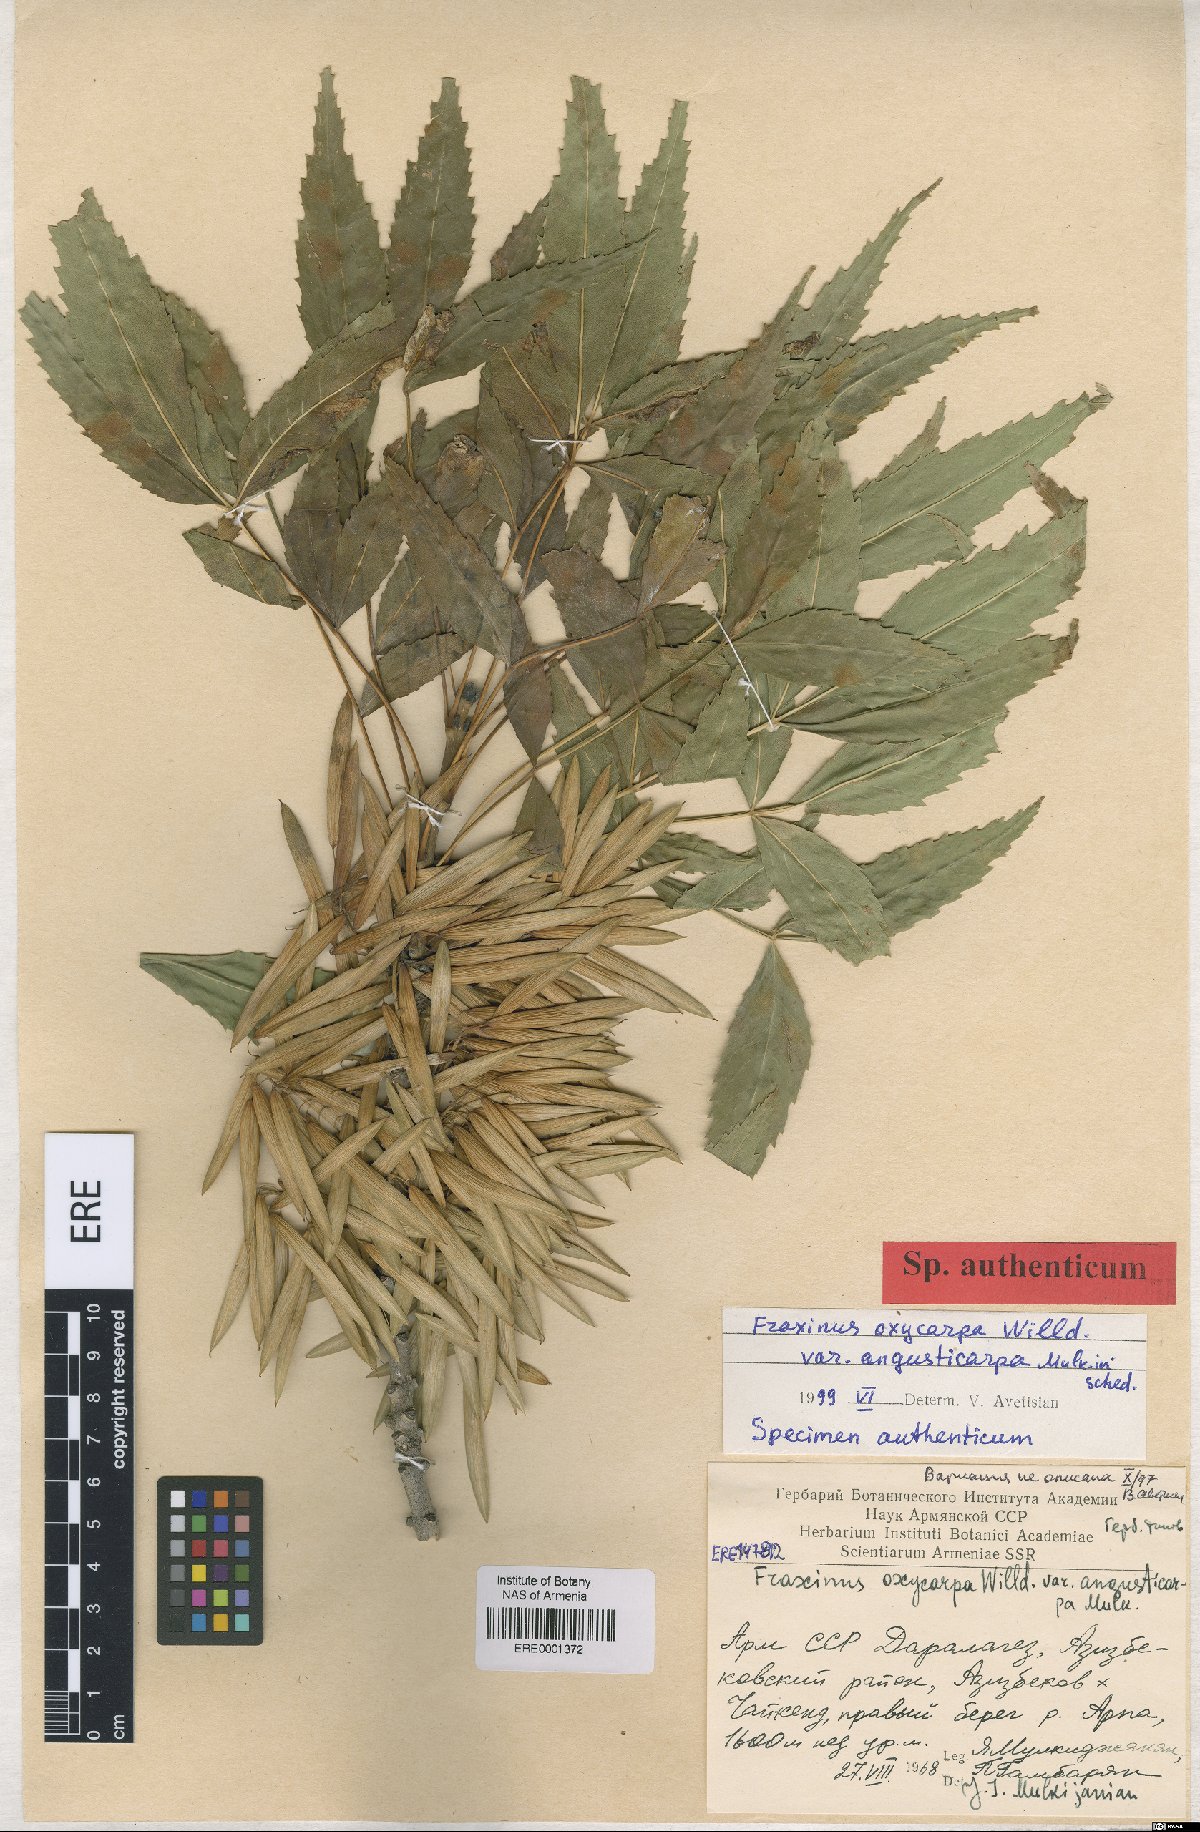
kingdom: Plantae
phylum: Tracheophyta
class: Magnoliopsida
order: Lamiales
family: Oleaceae
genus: Fraxinus
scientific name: Fraxinus angustifolia
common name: Narrow-leafed ash
